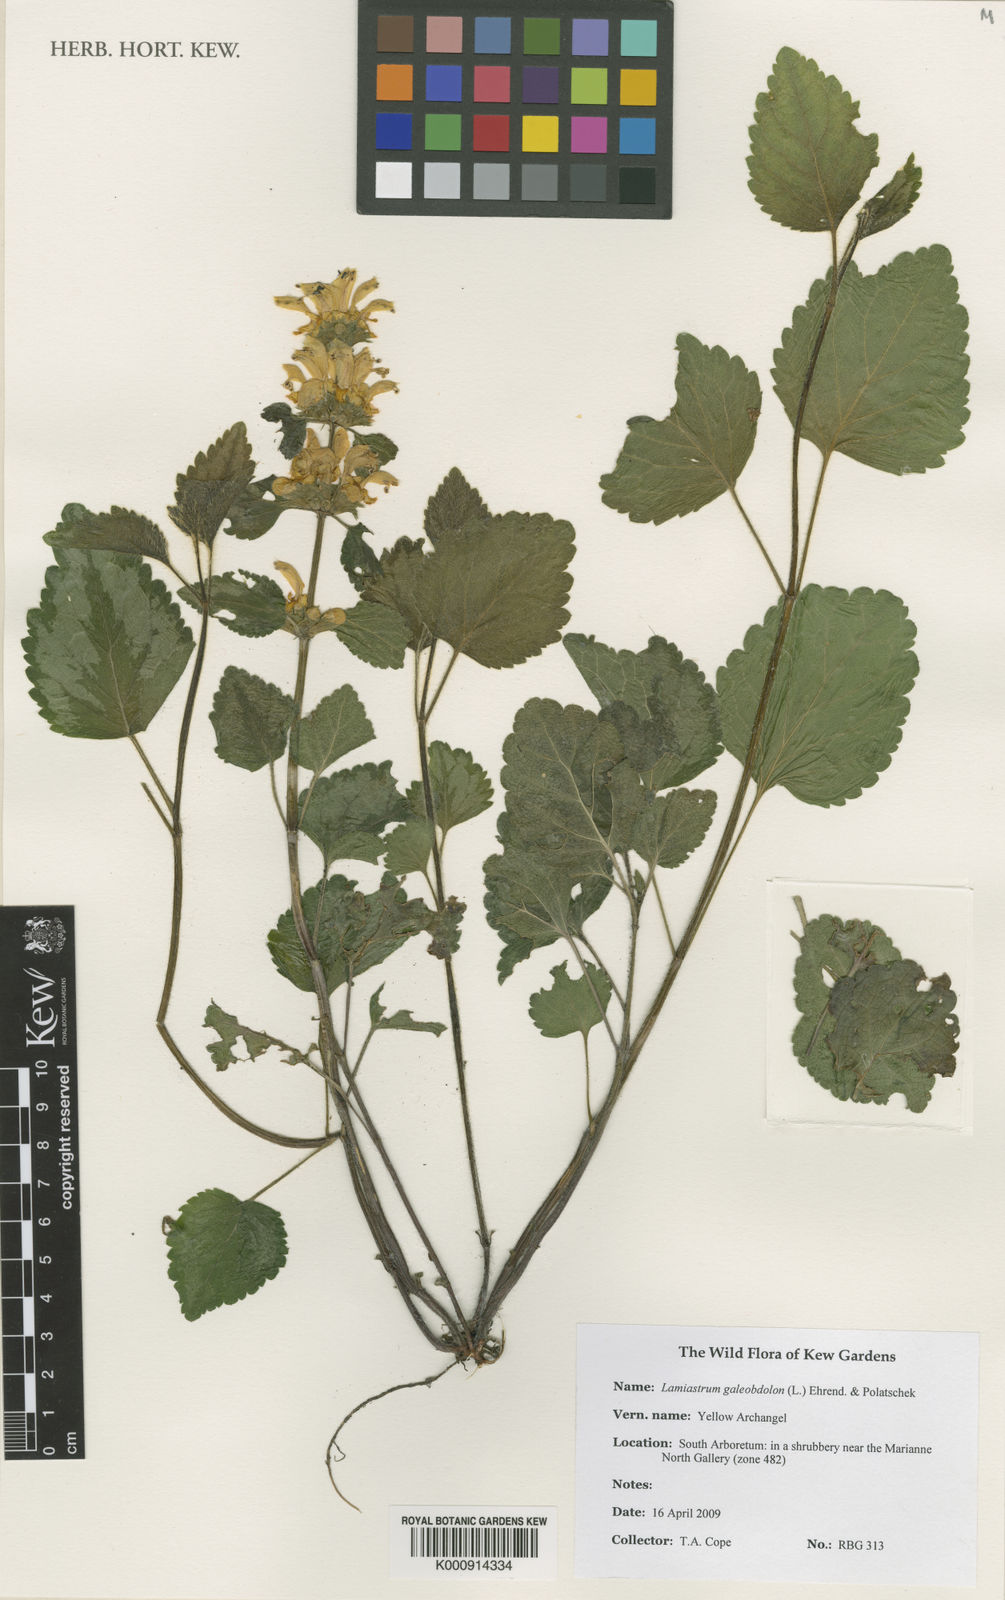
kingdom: Plantae
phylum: Tracheophyta
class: Magnoliopsida
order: Lamiales
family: Lamiaceae
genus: Lamium
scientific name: Lamium galeobdolon
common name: Yellow archangel
